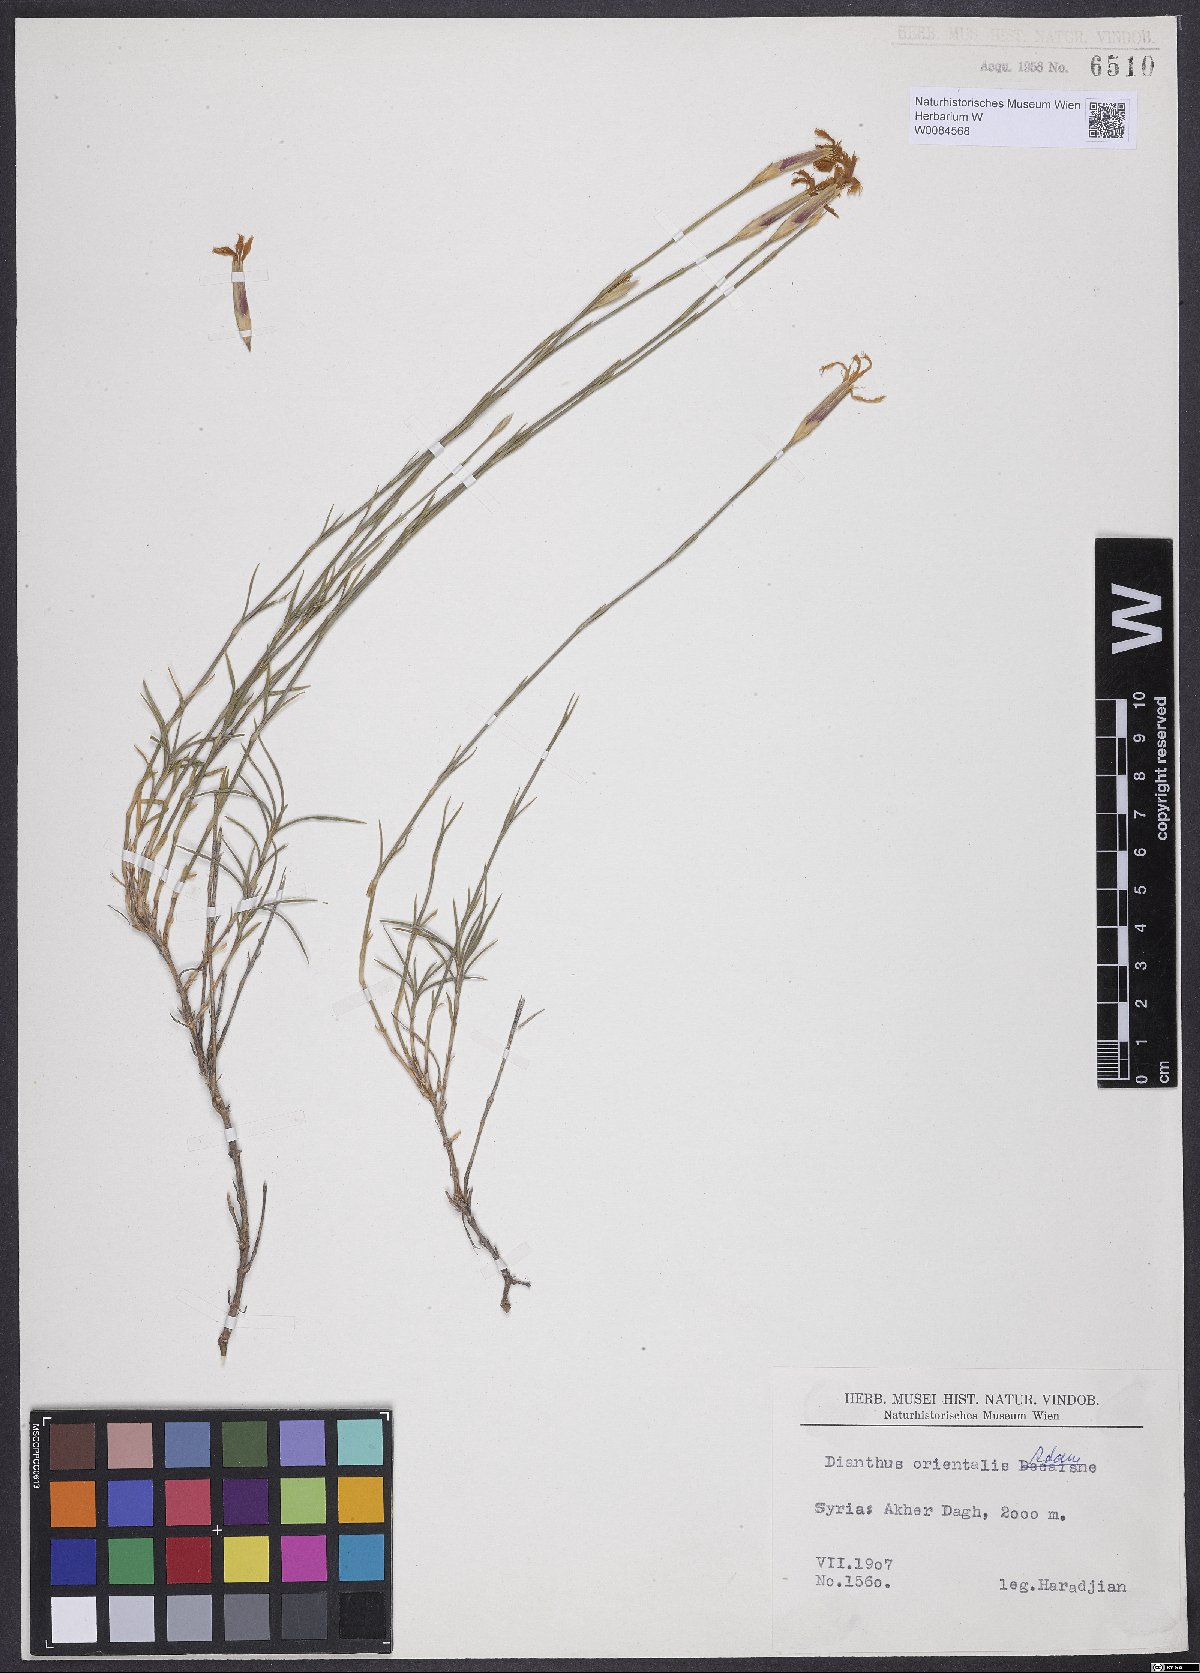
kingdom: Plantae
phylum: Tracheophyta
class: Magnoliopsida
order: Caryophyllales
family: Caryophyllaceae
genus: Dianthus
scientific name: Dianthus orientalis
